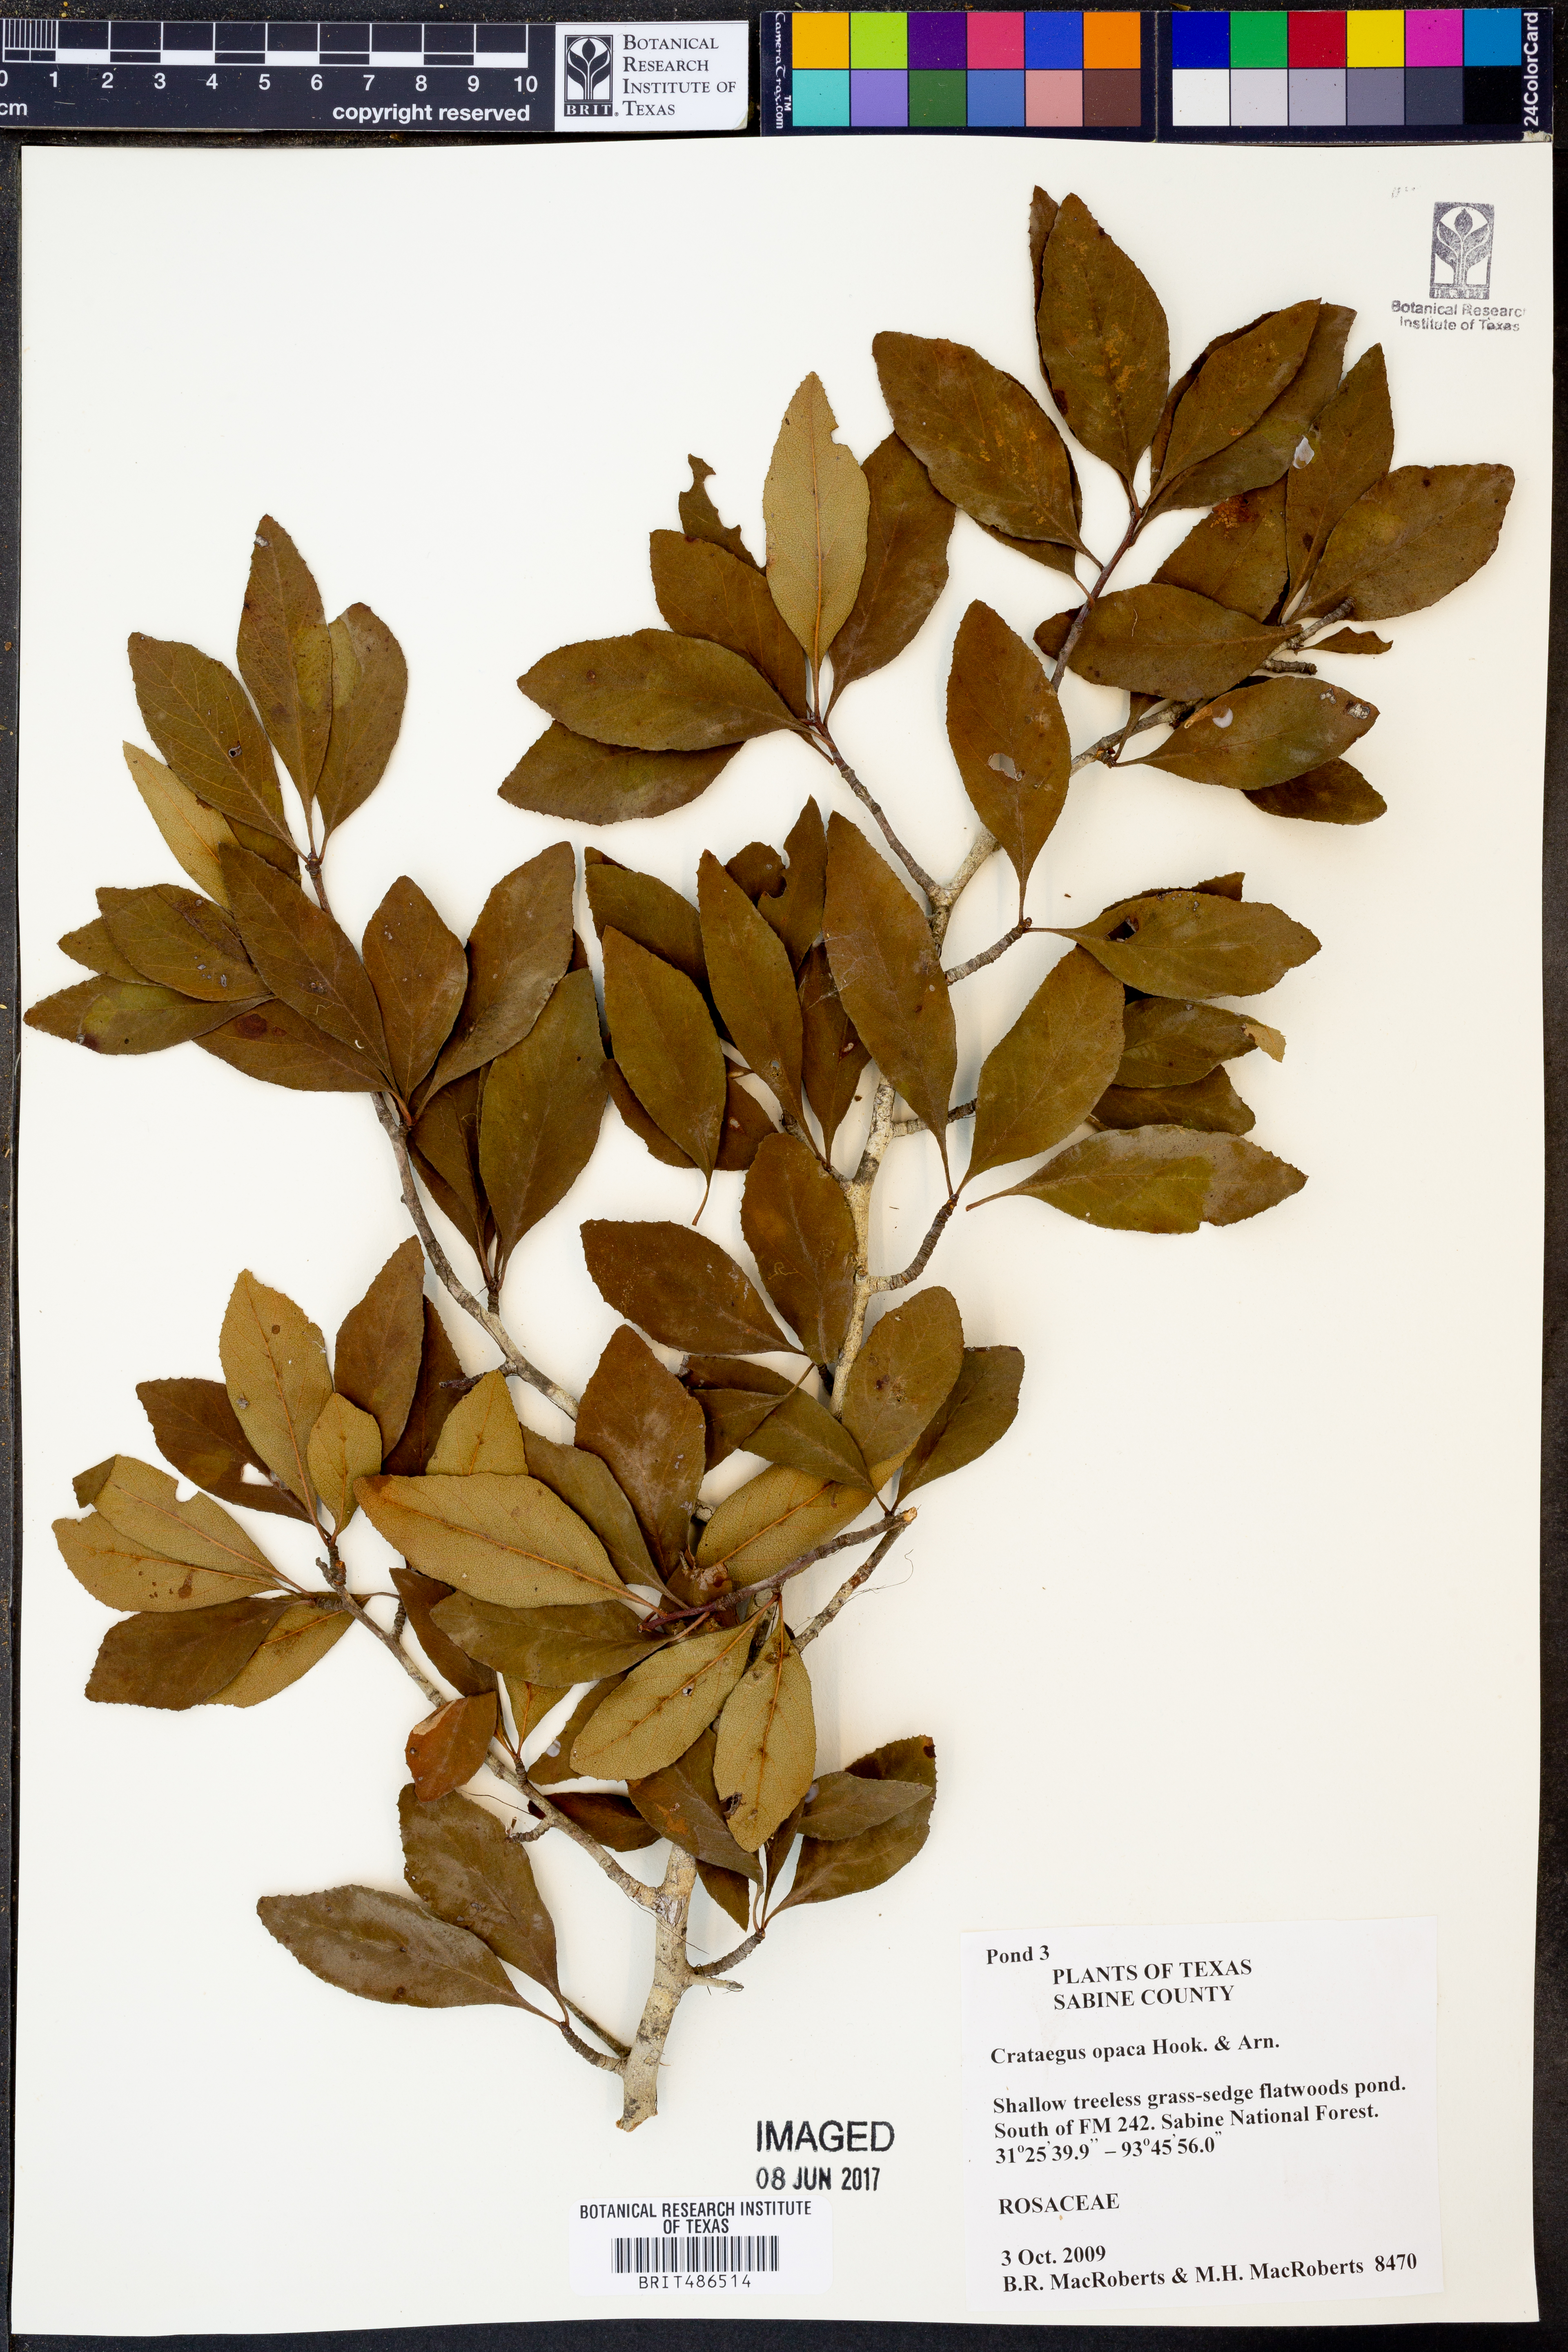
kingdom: Plantae
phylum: Tracheophyta
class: Magnoliopsida
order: Rosales
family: Rosaceae
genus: Crataegus
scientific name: Crataegus opaca
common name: Apple haw
